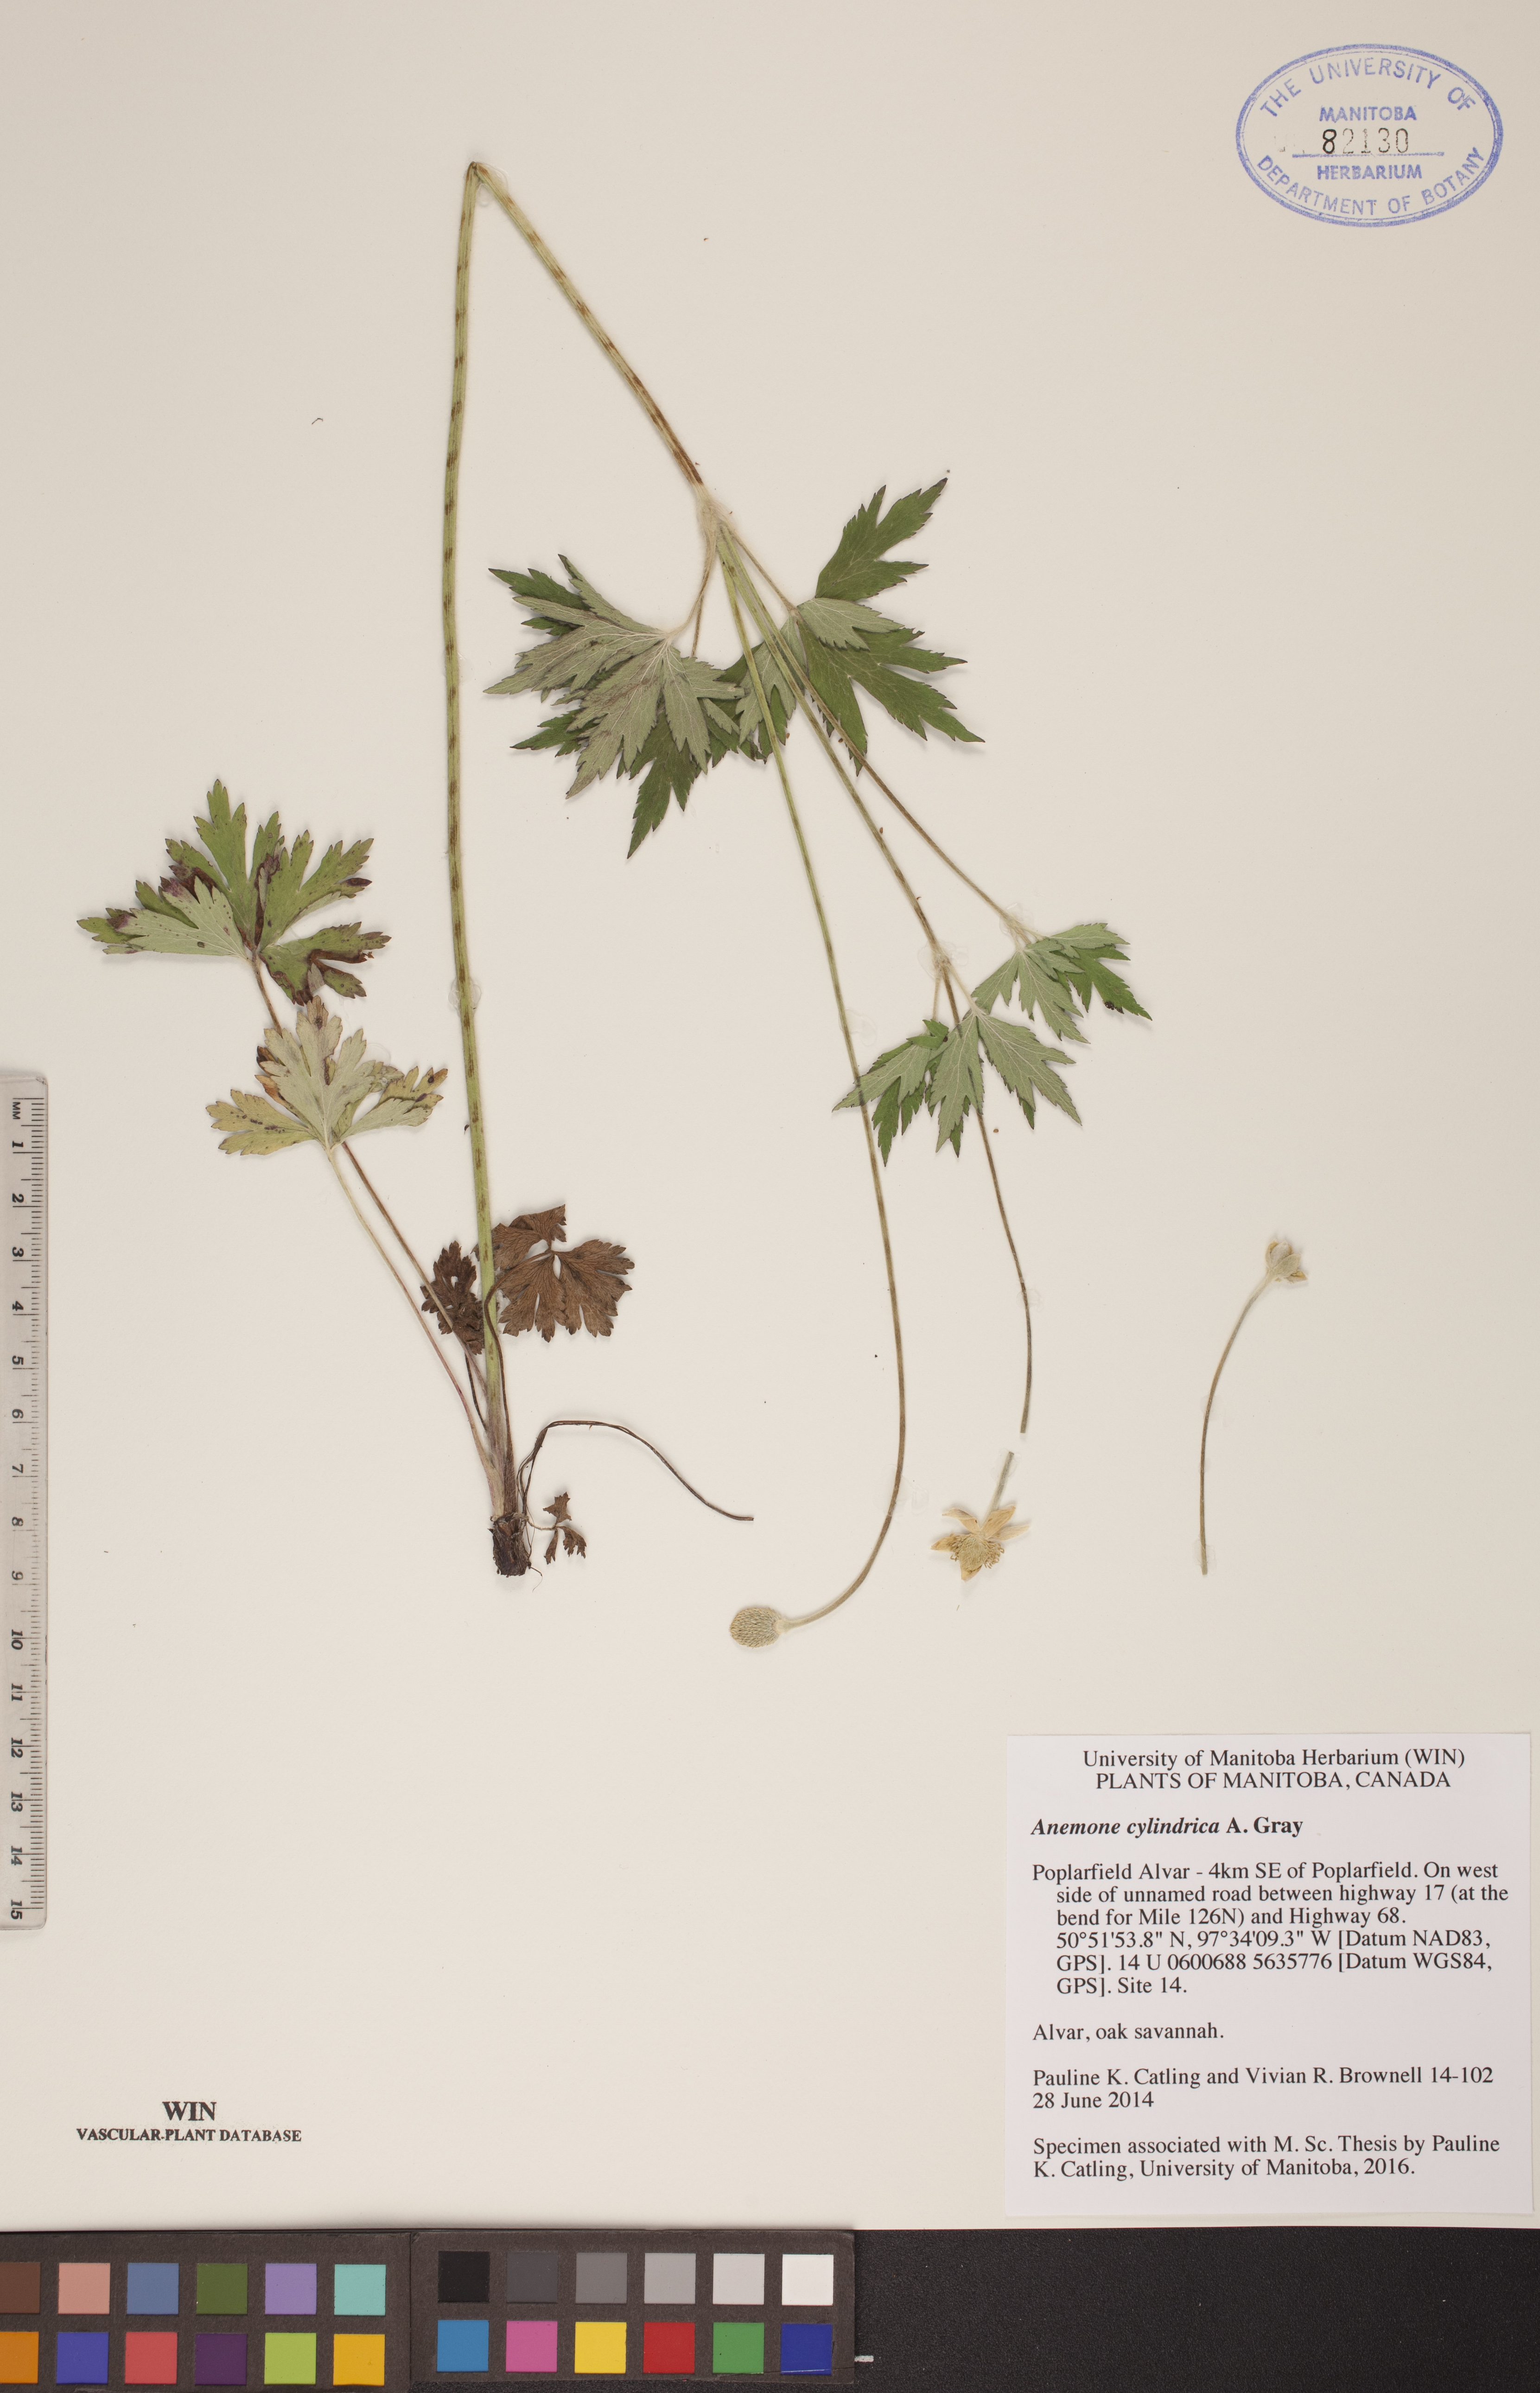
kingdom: Plantae
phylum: Tracheophyta
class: Magnoliopsida
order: Ranunculales
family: Ranunculaceae
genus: Anemone
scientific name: Anemone cylindrica
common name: Candle anemone
